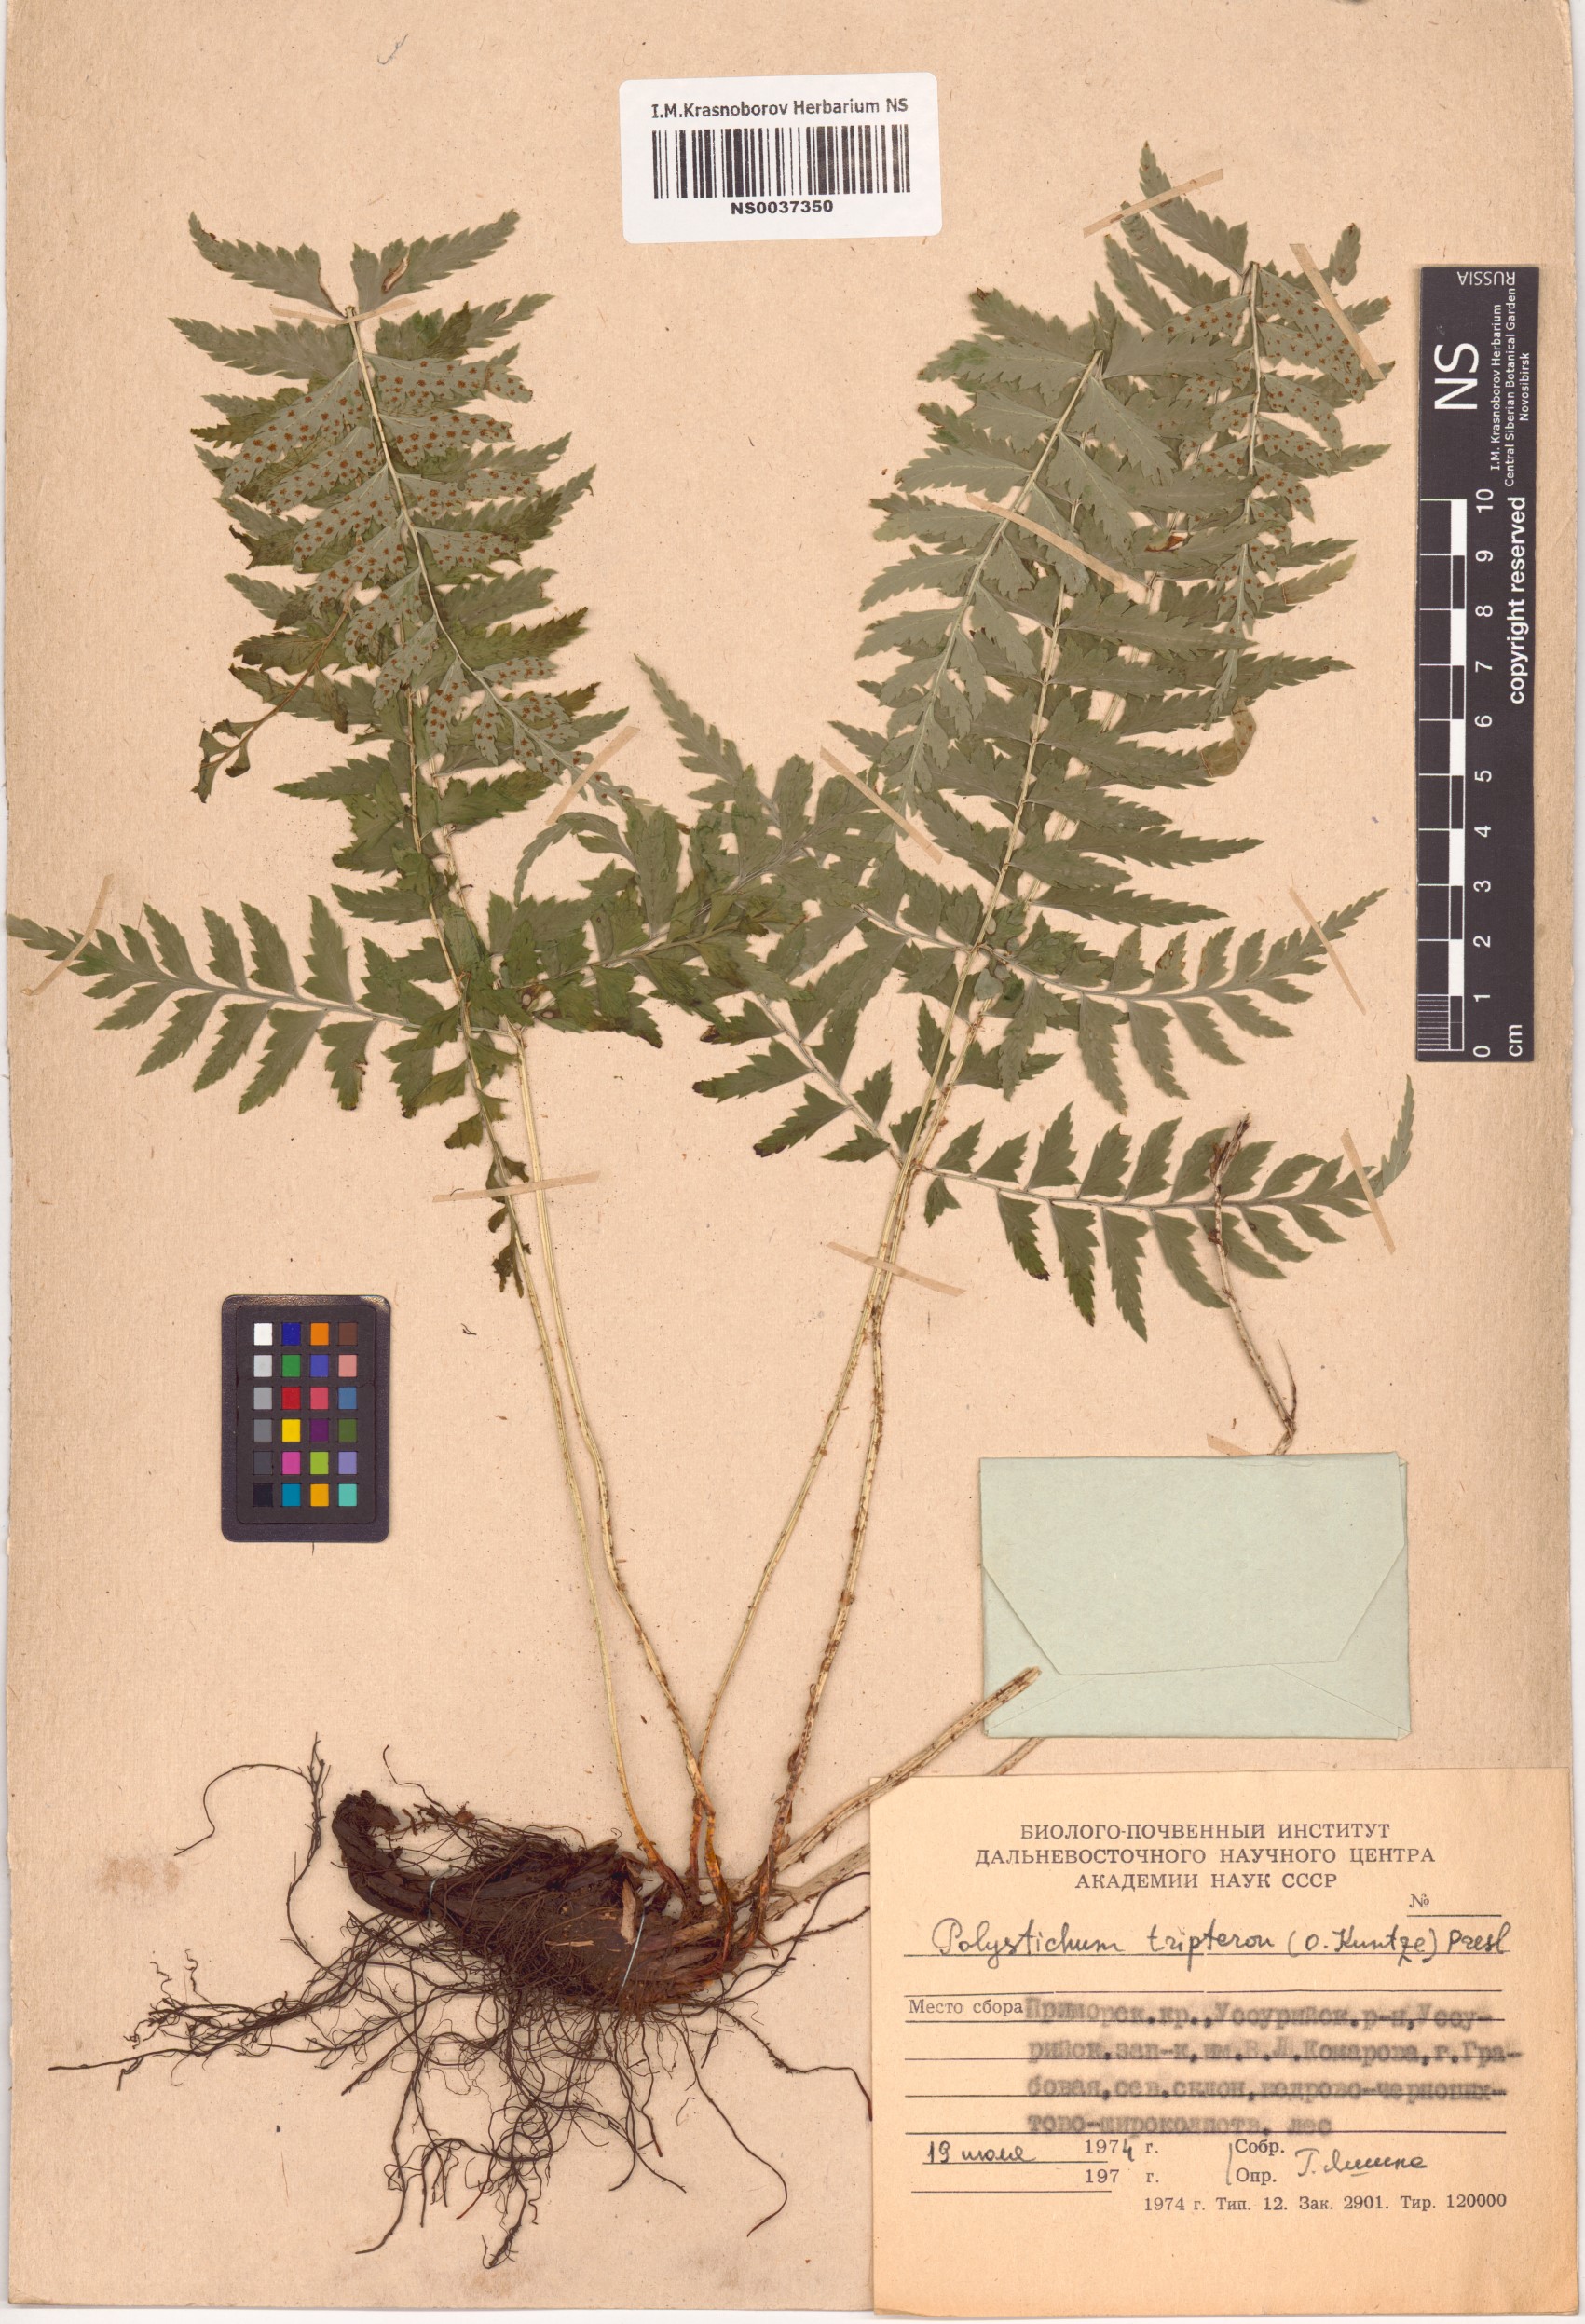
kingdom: Plantae
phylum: Tracheophyta
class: Polypodiopsida
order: Polypodiales
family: Dryopteridaceae
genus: Polystichum
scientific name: Polystichum tripteron
